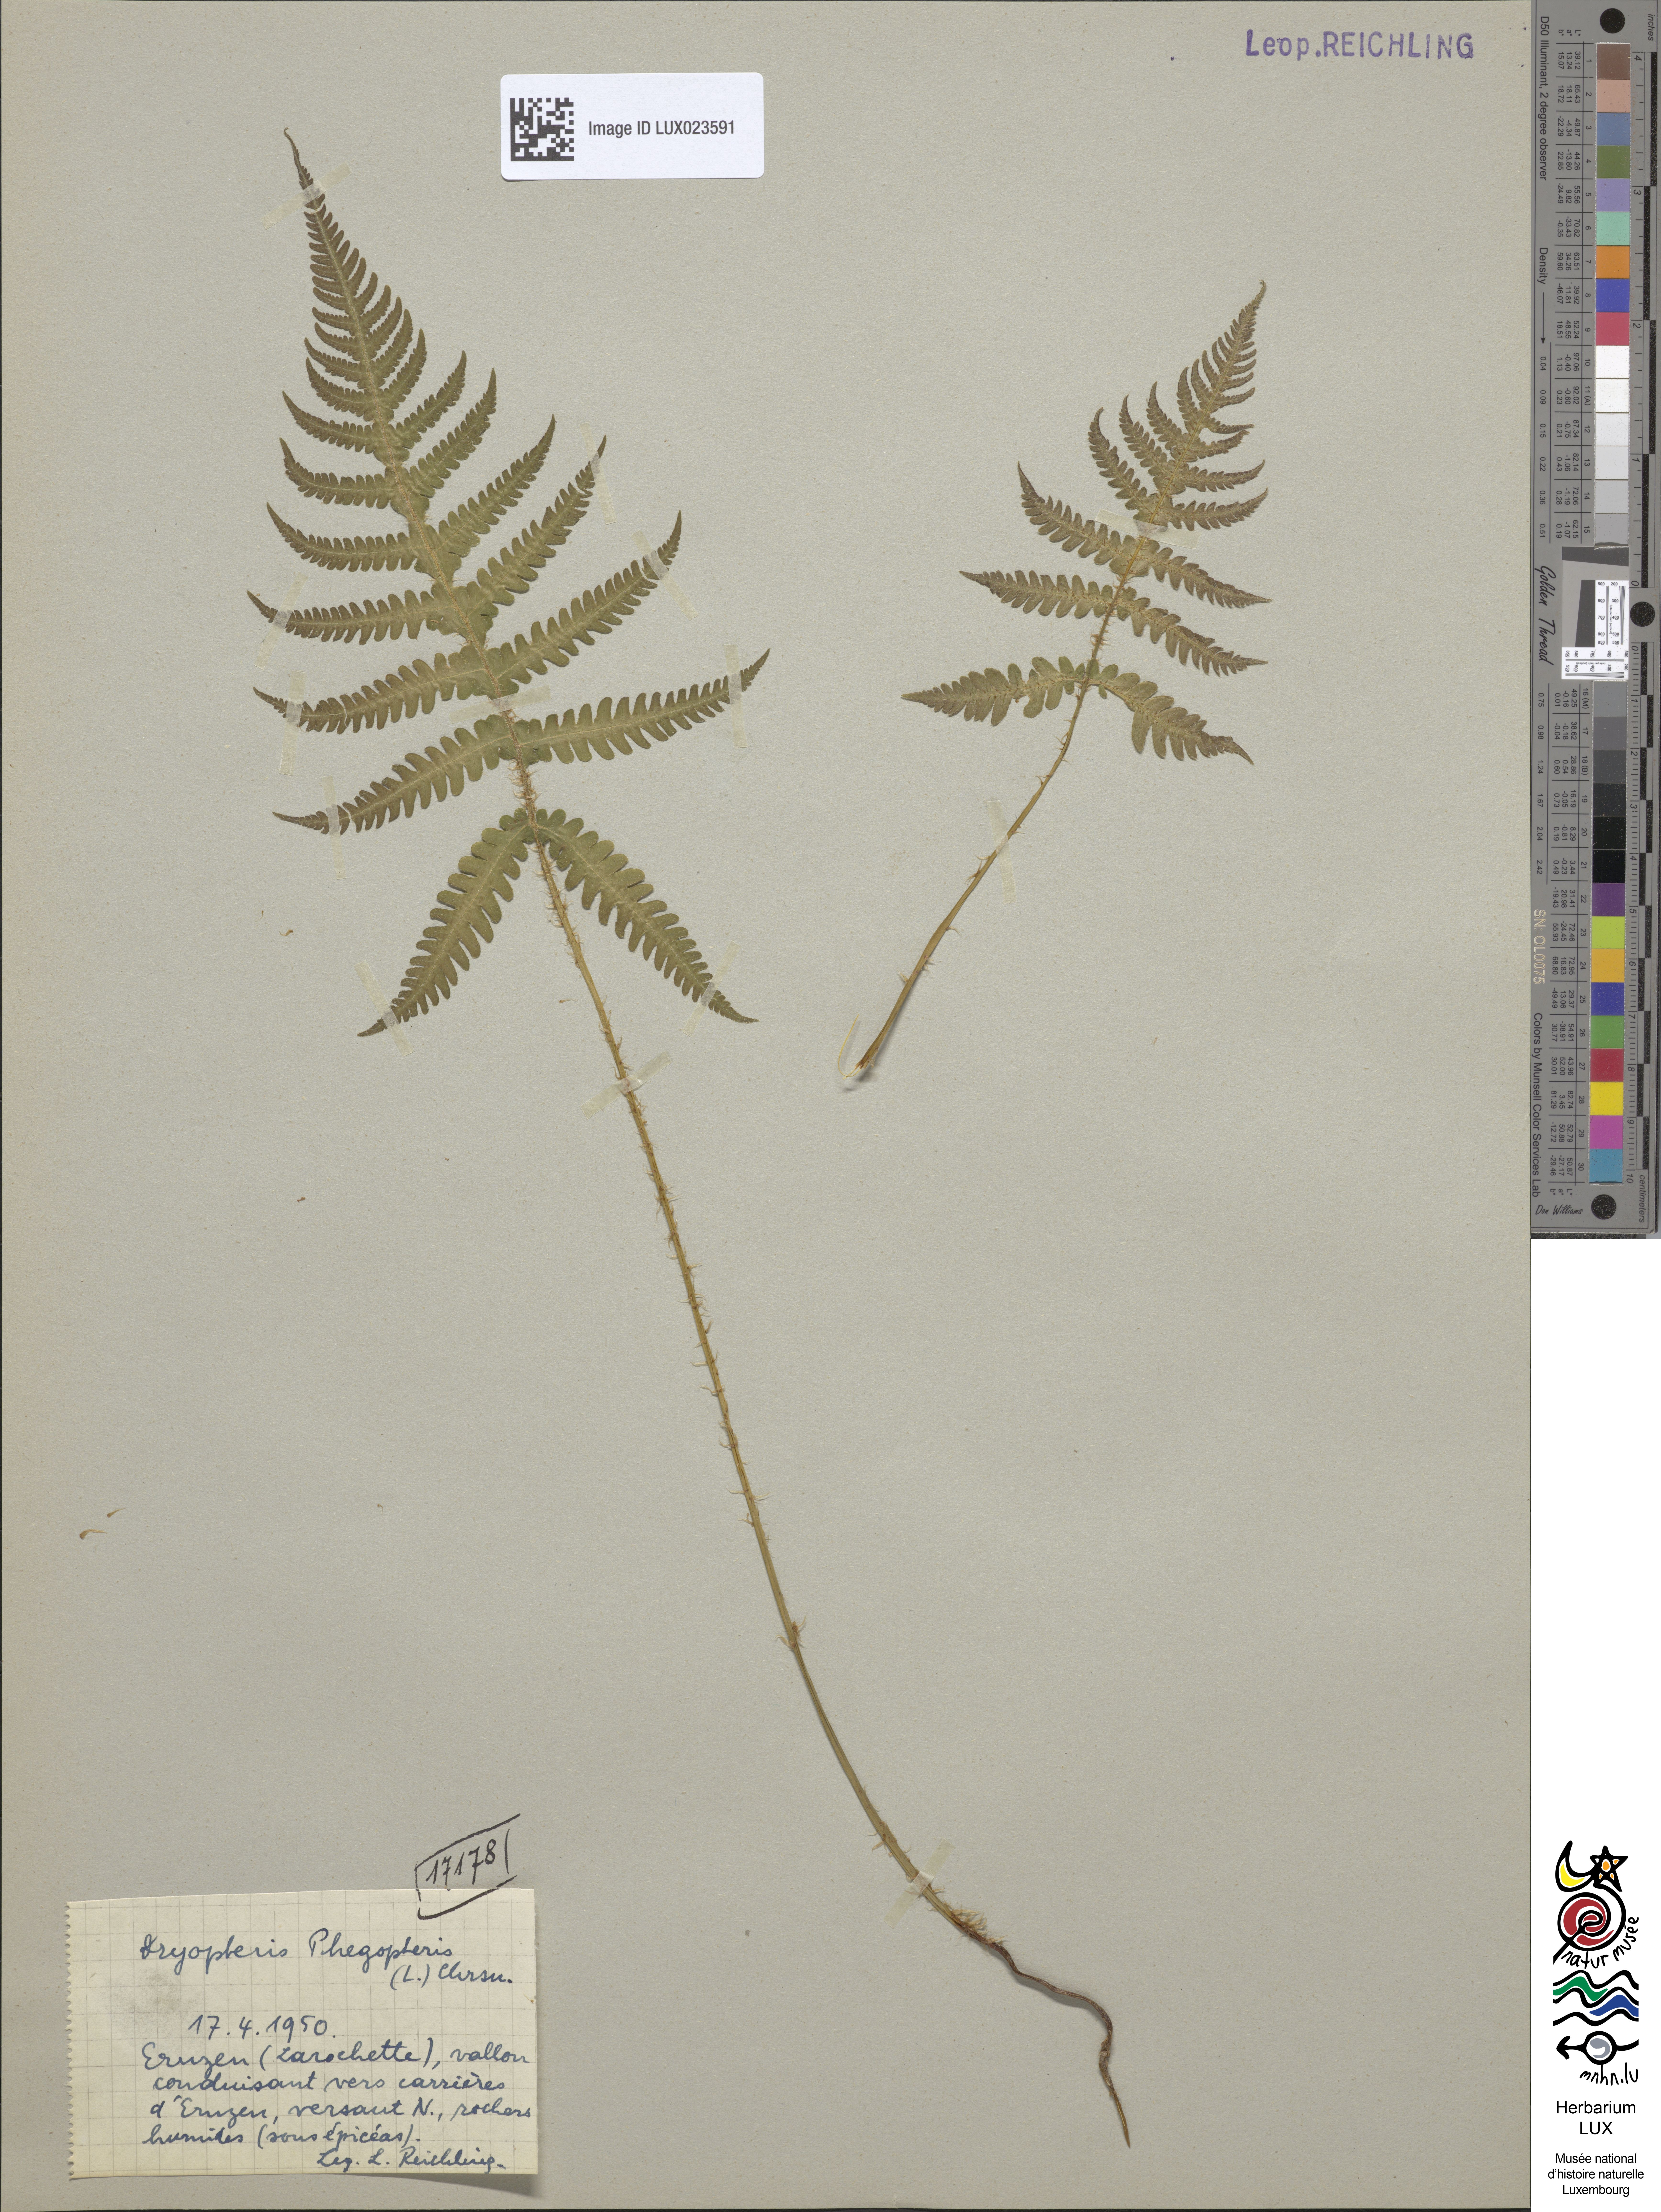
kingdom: Plantae
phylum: Tracheophyta
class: Polypodiopsida
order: Polypodiales
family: Thelypteridaceae
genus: Phegopteris
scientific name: Phegopteris connectilis
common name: Beech fern
